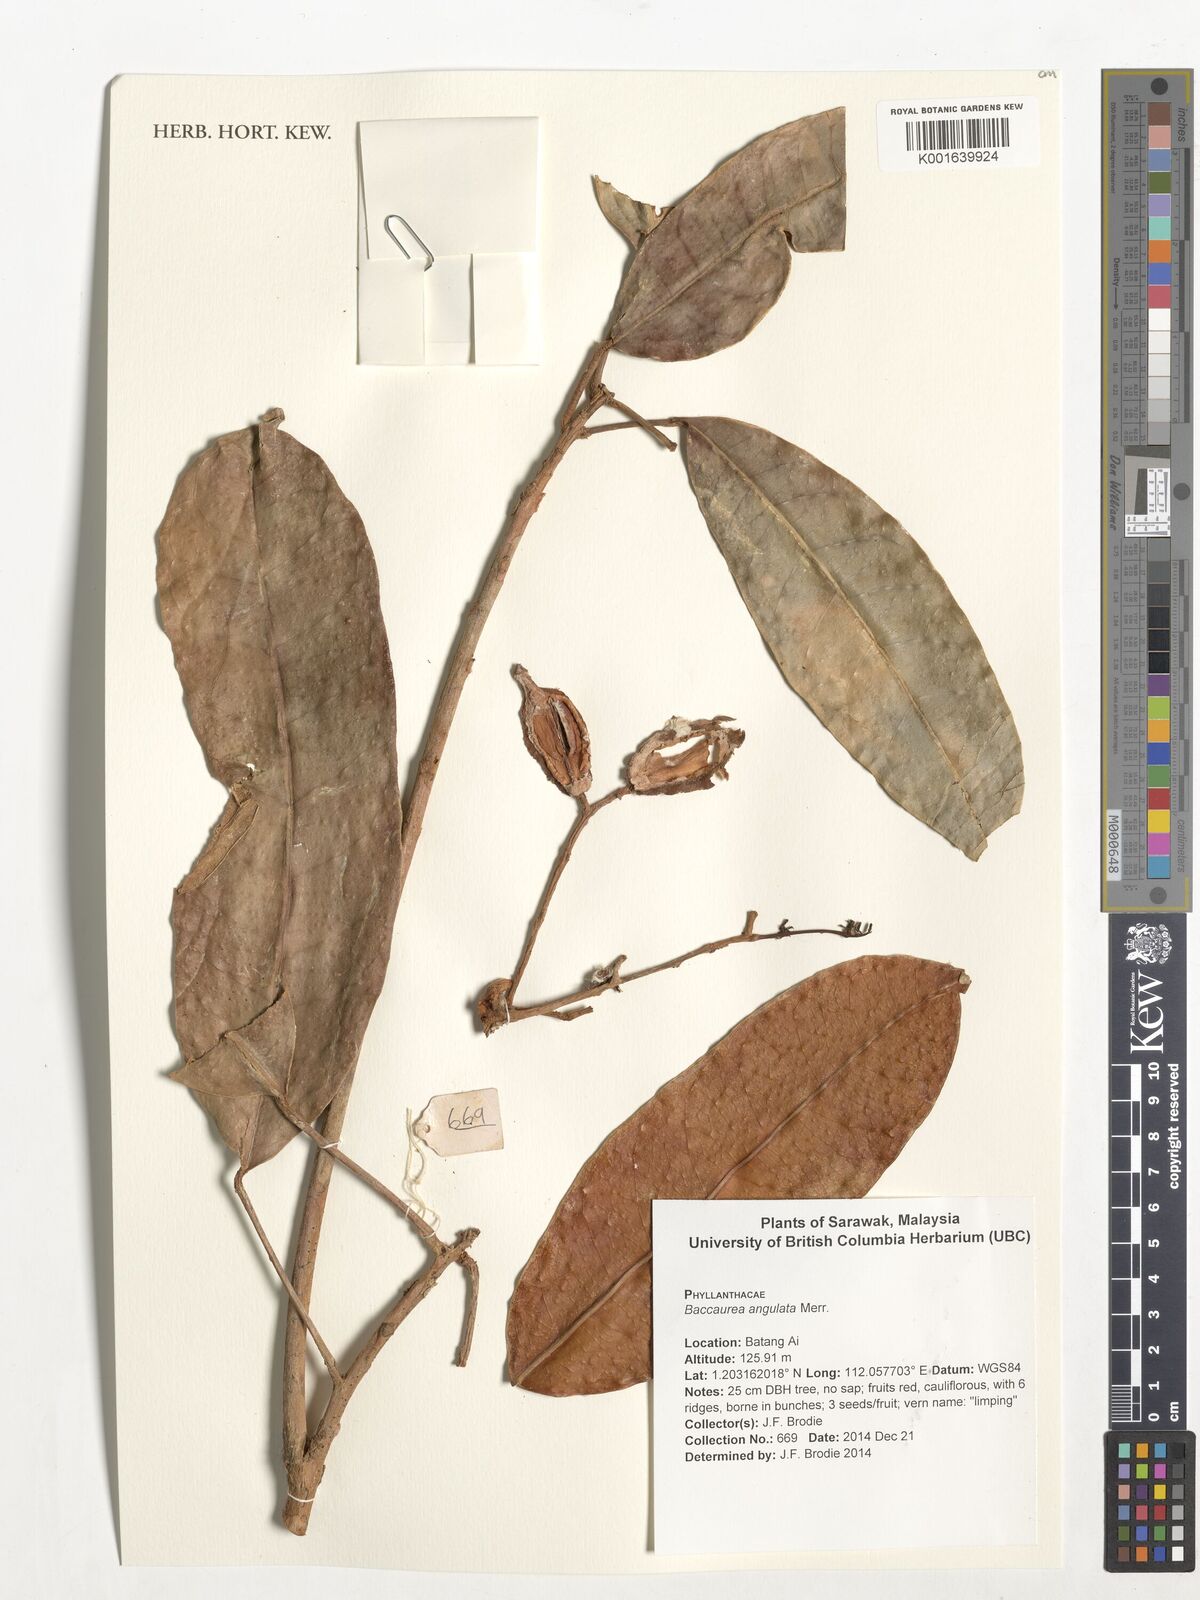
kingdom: Plantae
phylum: Tracheophyta
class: Magnoliopsida
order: Malpighiales
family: Phyllanthaceae
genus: Baccaurea
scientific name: Baccaurea angulata
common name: Red angle tampoi
